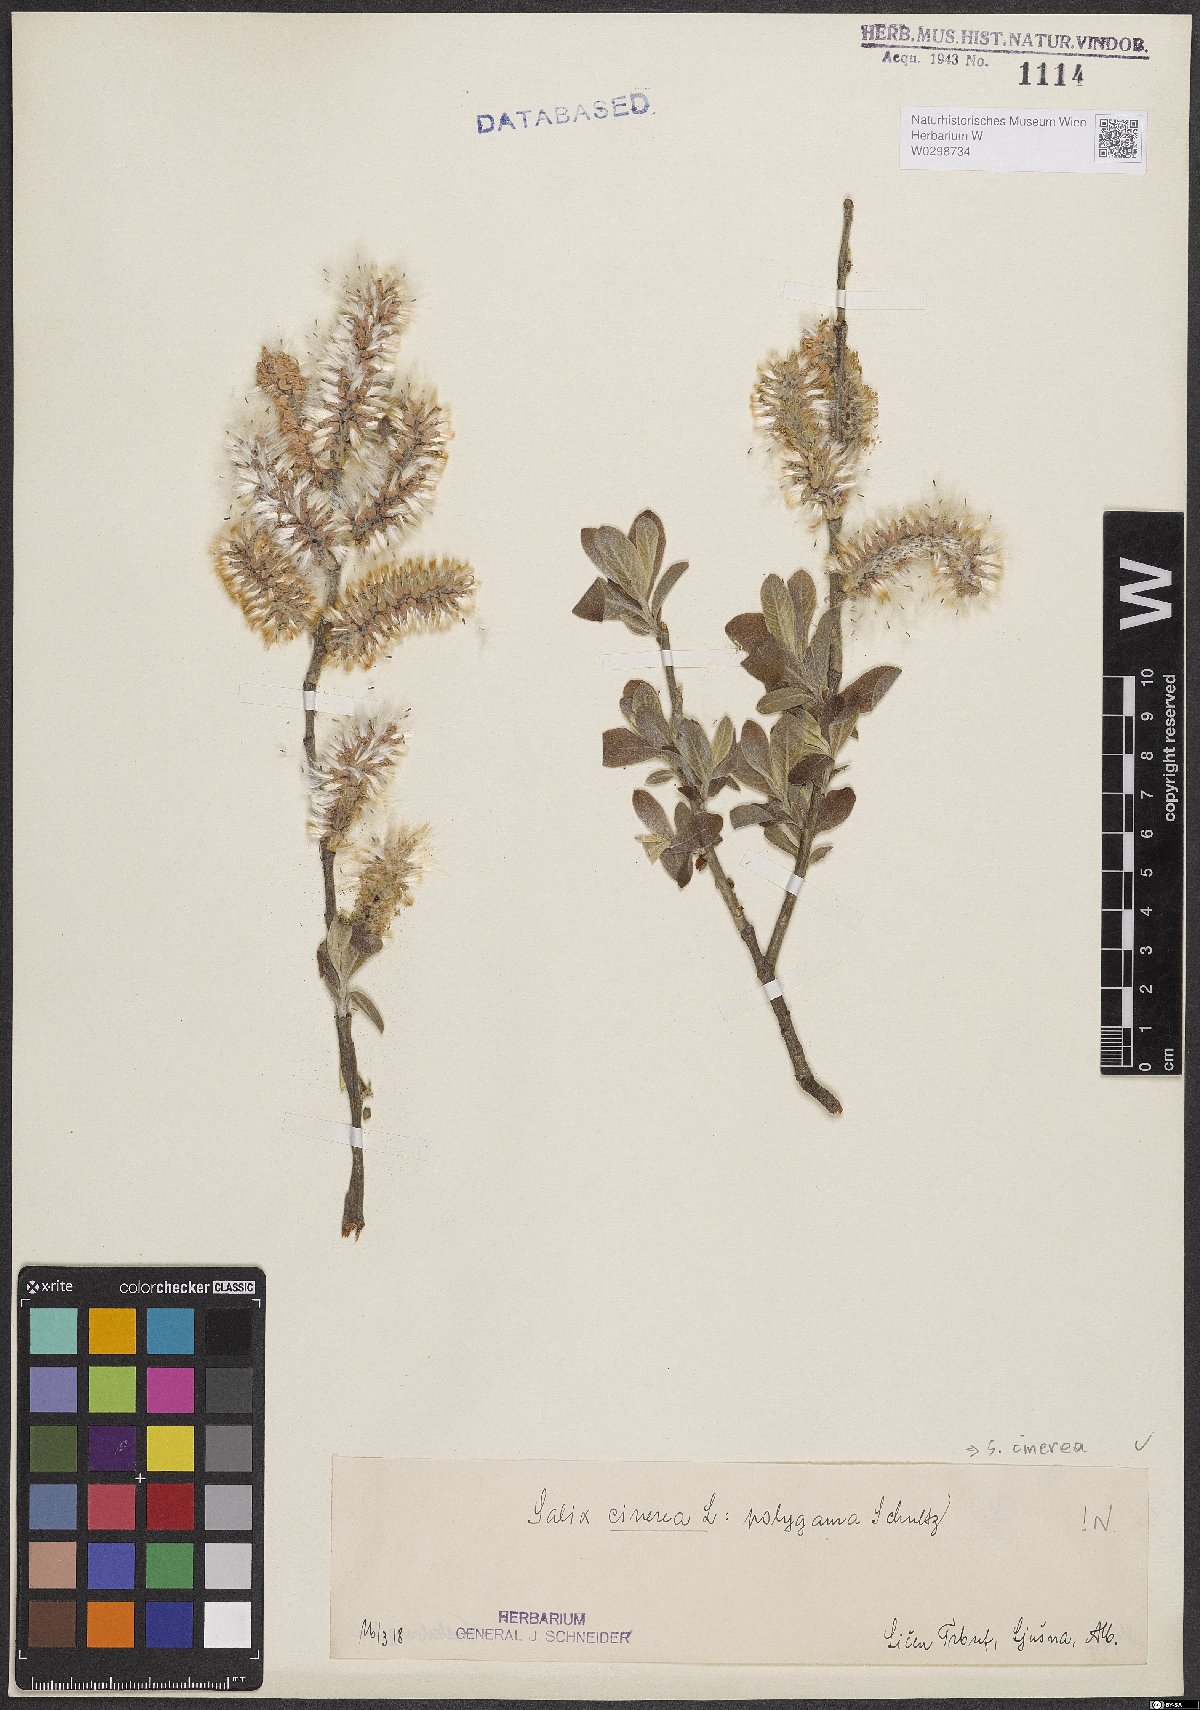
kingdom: Plantae
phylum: Tracheophyta
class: Magnoliopsida
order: Malpighiales
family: Salicaceae
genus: Salix
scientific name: Salix cinerea
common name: Common sallow
